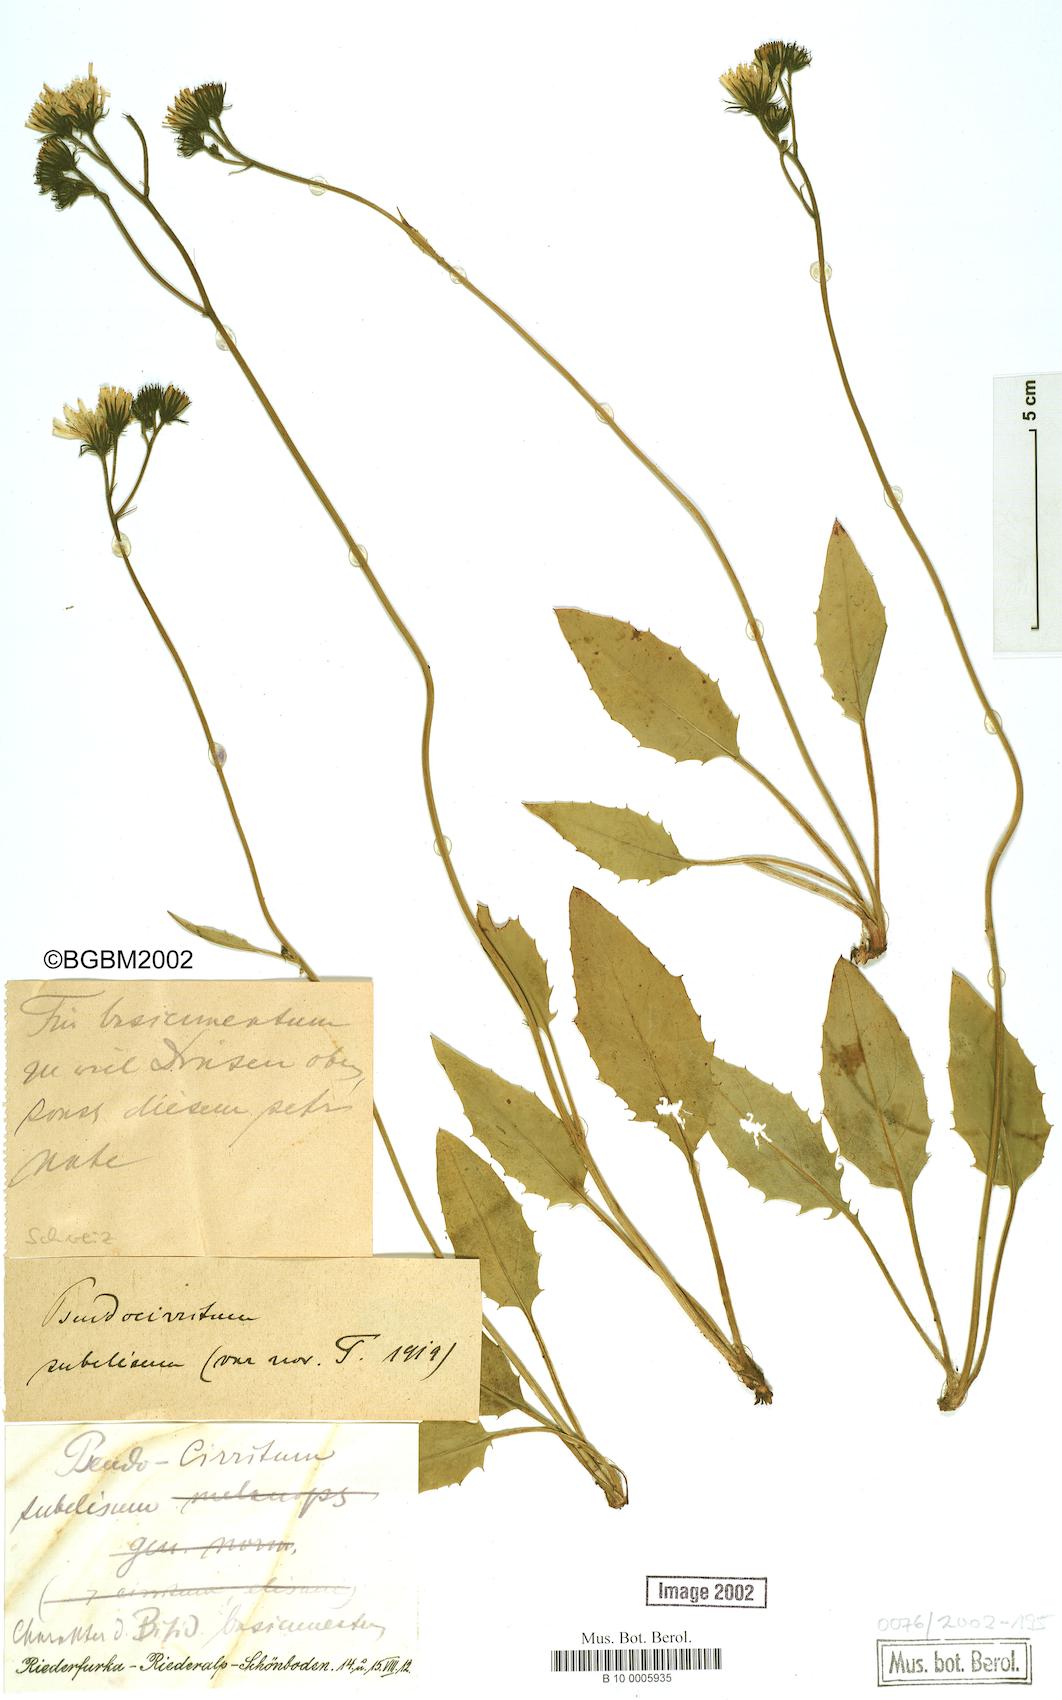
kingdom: Plantae
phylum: Tracheophyta
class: Magnoliopsida
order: Asterales
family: Asteraceae
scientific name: Asteraceae
